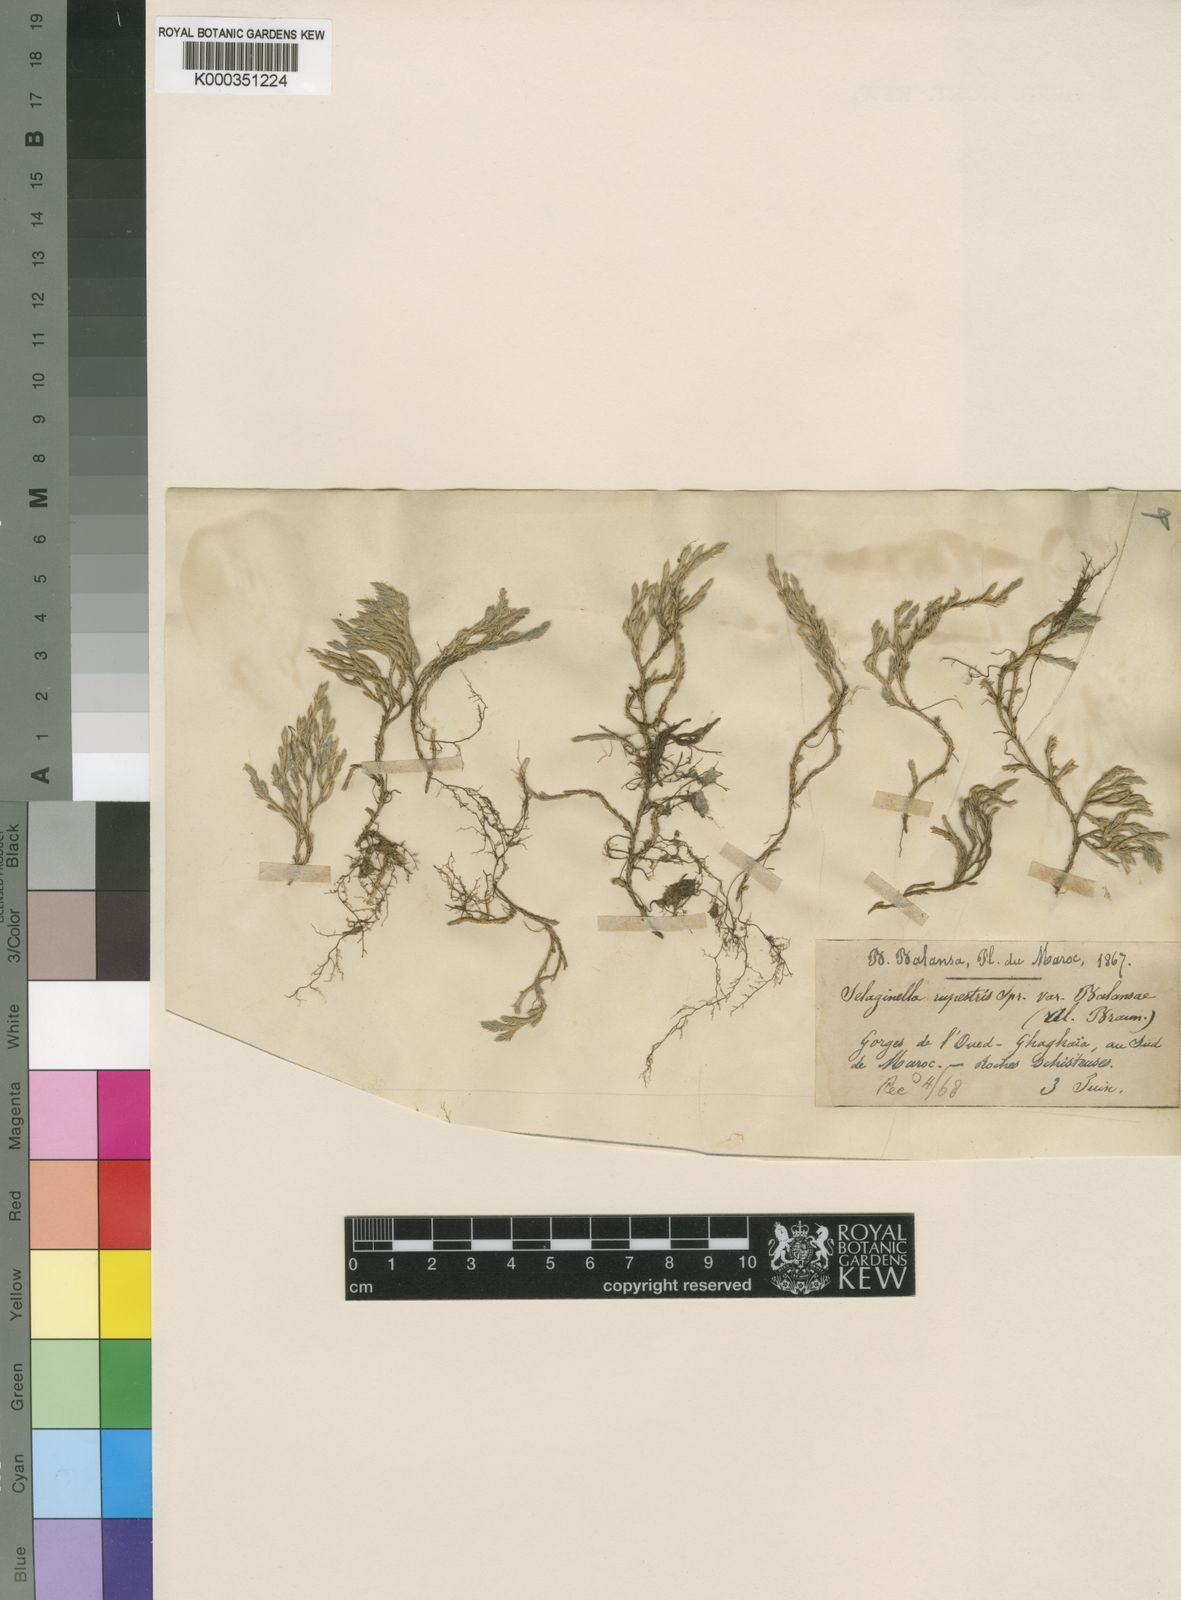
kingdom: Plantae
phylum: Tracheophyta
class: Lycopodiopsida
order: Selaginellales
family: Selaginellaceae
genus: Selaginella
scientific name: Selaginella balansae
